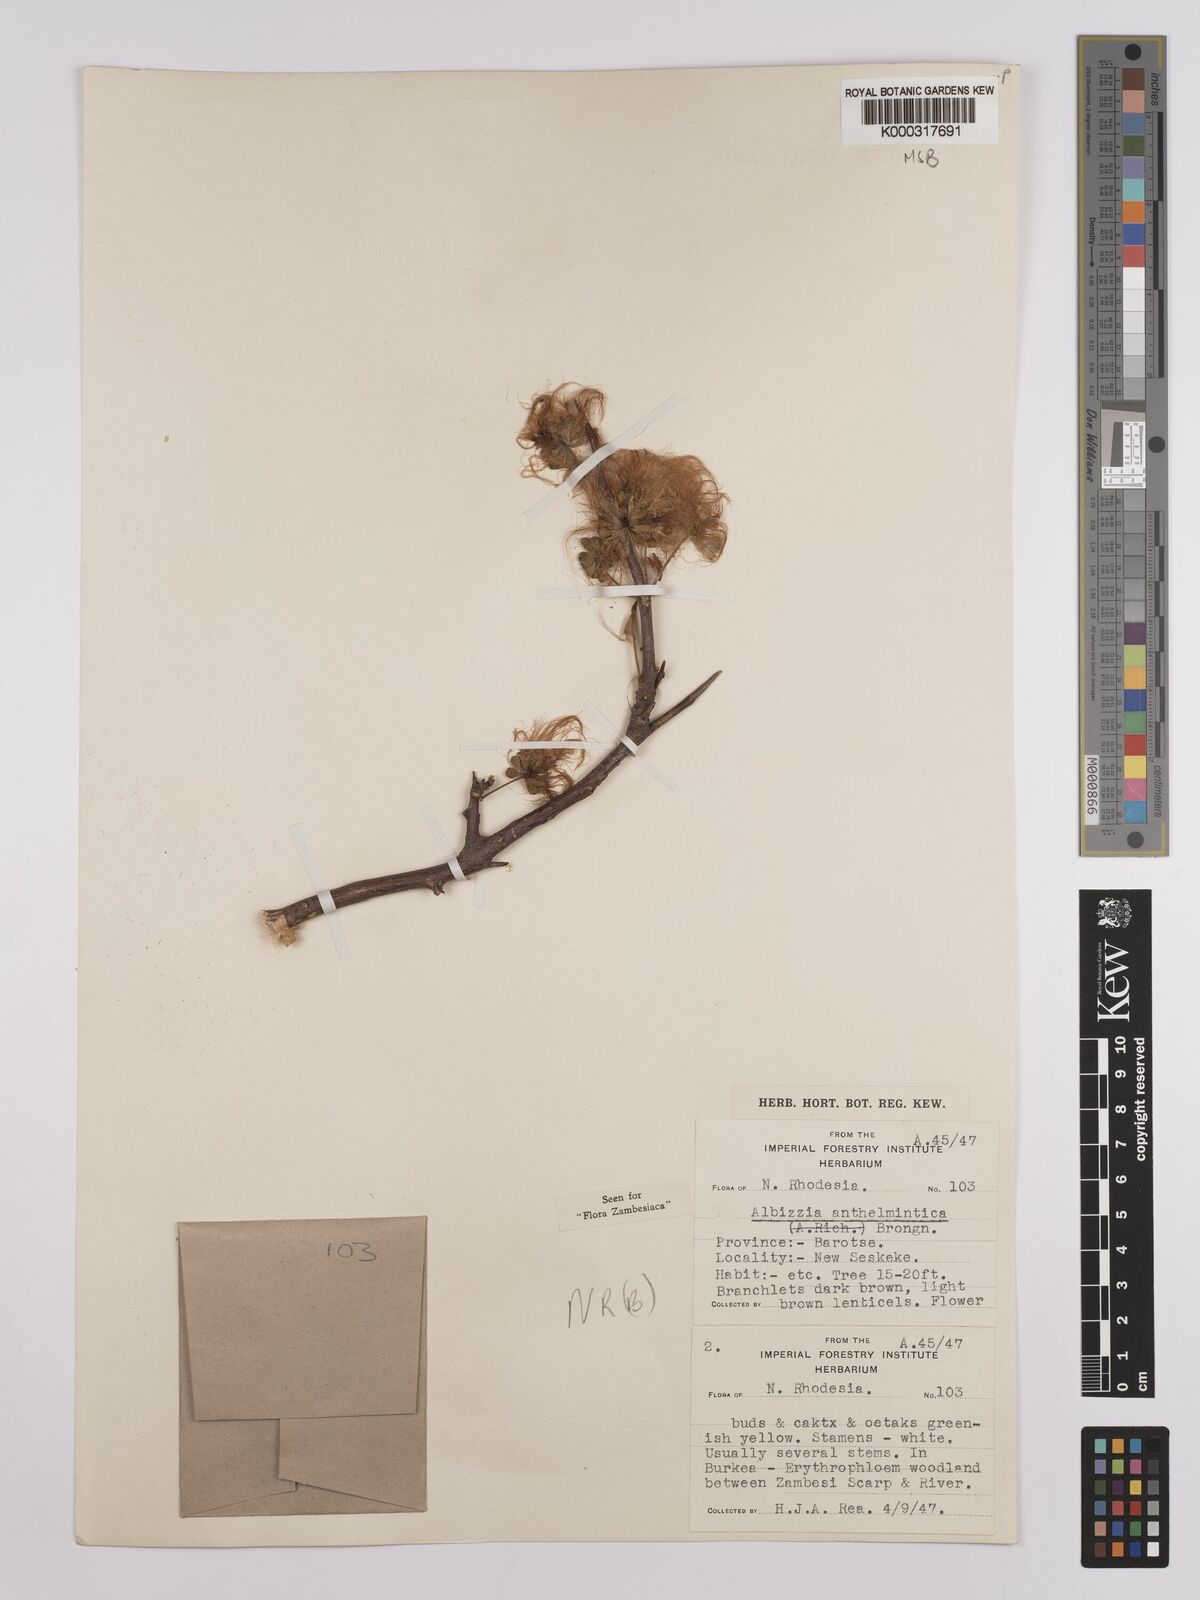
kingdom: Plantae
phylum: Tracheophyta
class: Magnoliopsida
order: Fabales
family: Fabaceae
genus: Albizia
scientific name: Albizia anthelmintica
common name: Worm-bark false-thorn
